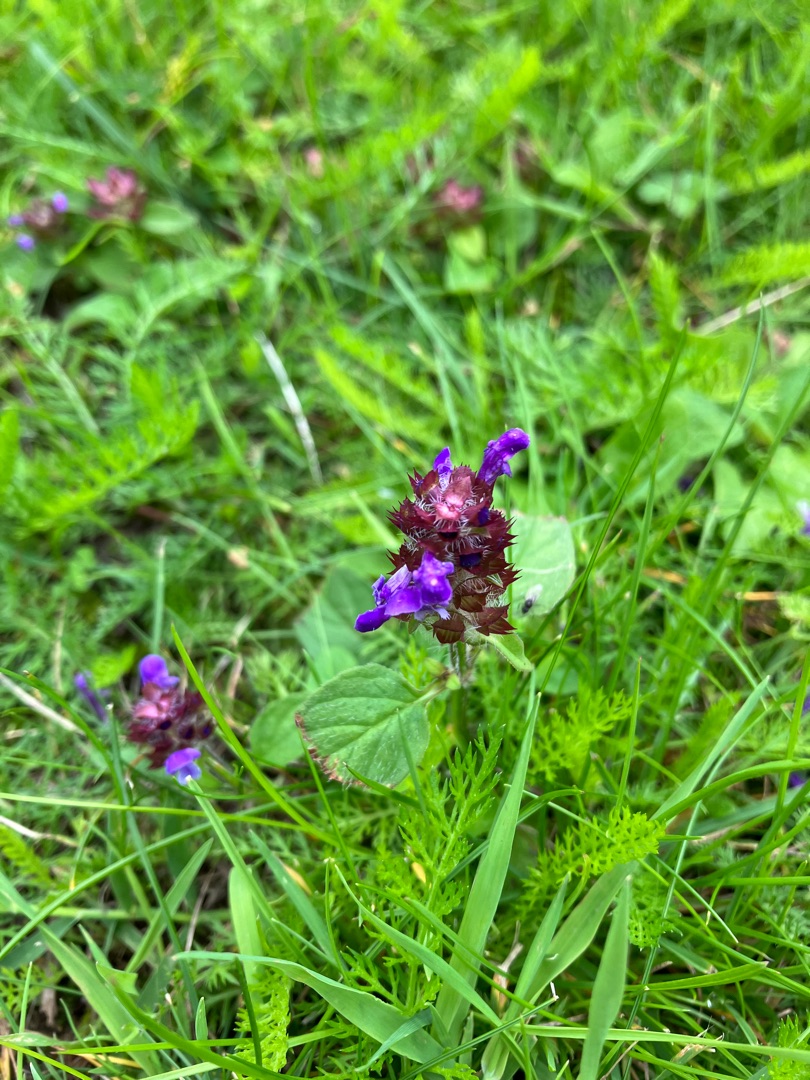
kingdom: Plantae
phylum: Tracheophyta
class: Magnoliopsida
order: Lamiales
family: Lamiaceae
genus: Prunella
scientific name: Prunella vulgaris
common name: Almindelig brunelle
